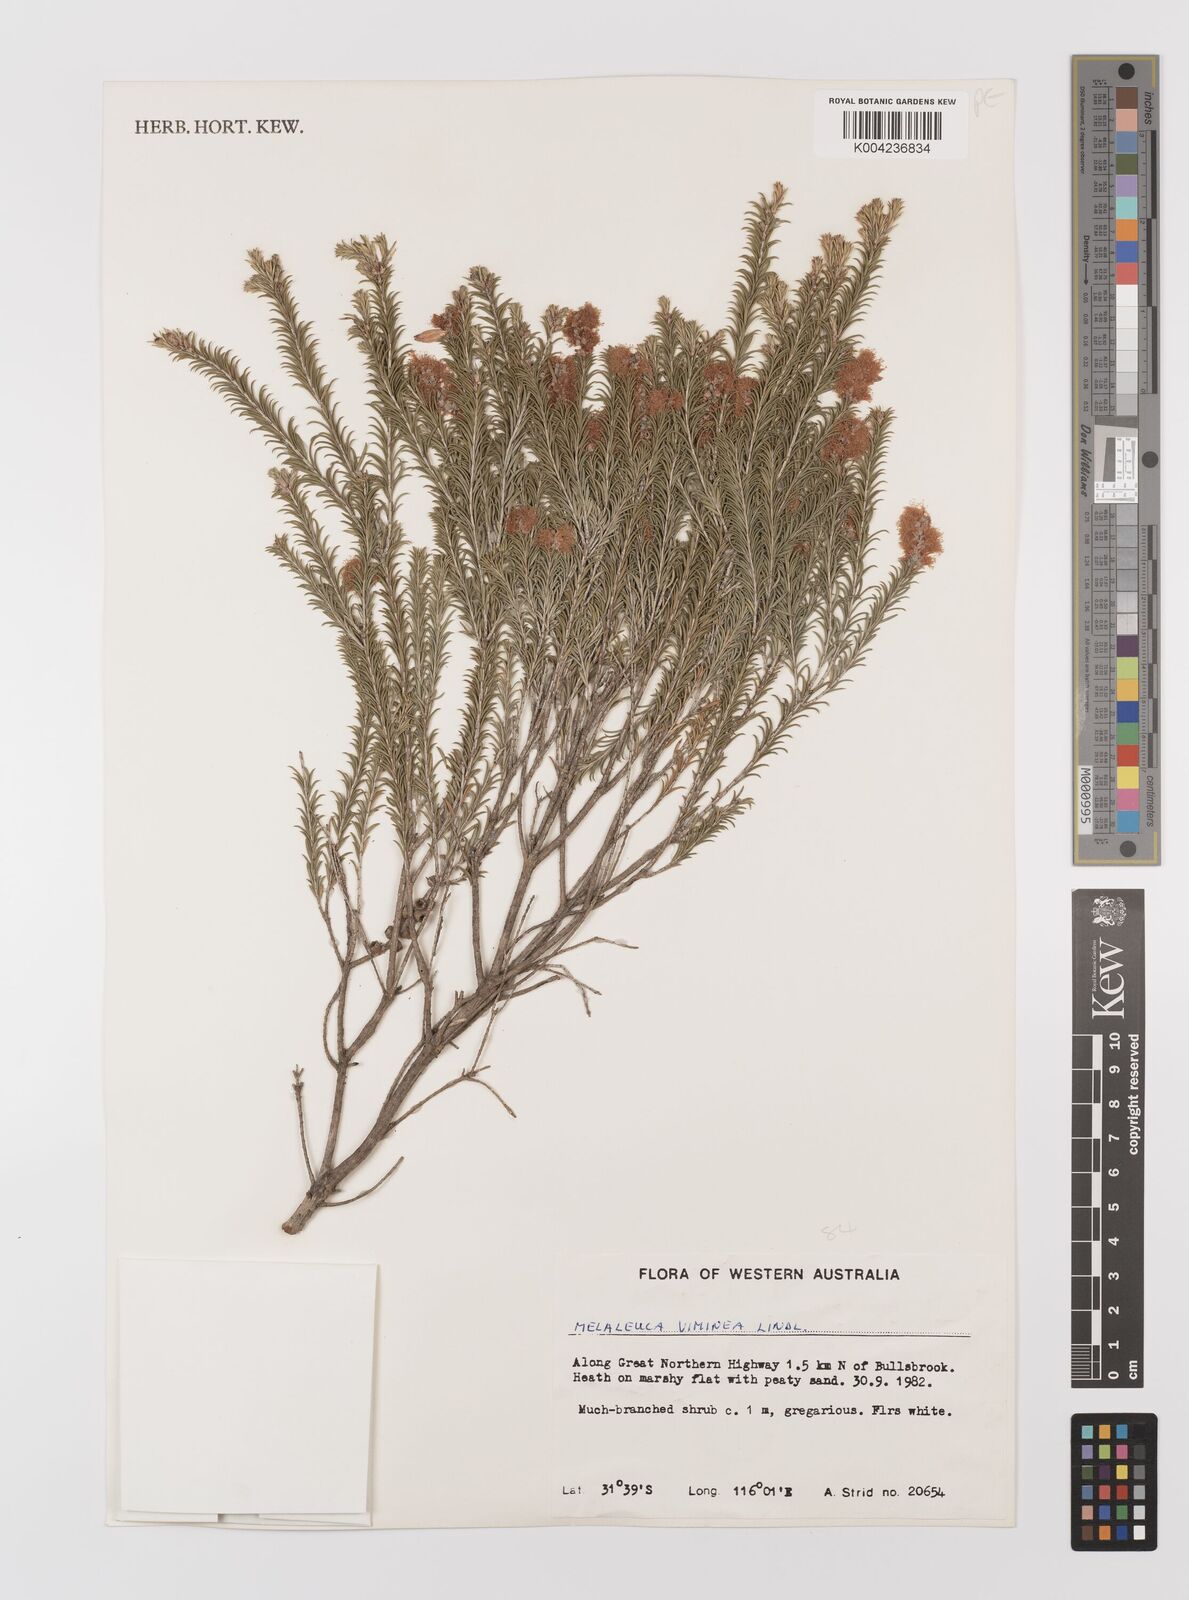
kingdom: Plantae
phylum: Tracheophyta
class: Magnoliopsida
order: Myrtales
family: Myrtaceae
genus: Melaleuca
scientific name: Melaleuca viminea
